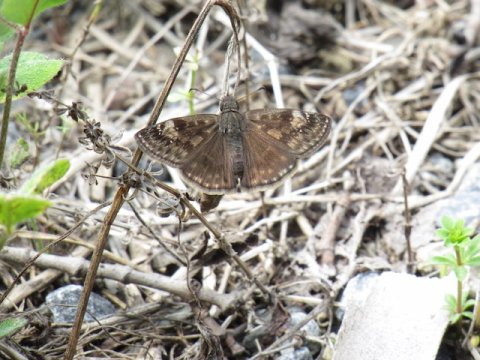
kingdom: Animalia
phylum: Arthropoda
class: Insecta
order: Lepidoptera
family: Hesperiidae
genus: Gesta
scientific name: Gesta
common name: Wild Indigo Duskywing
